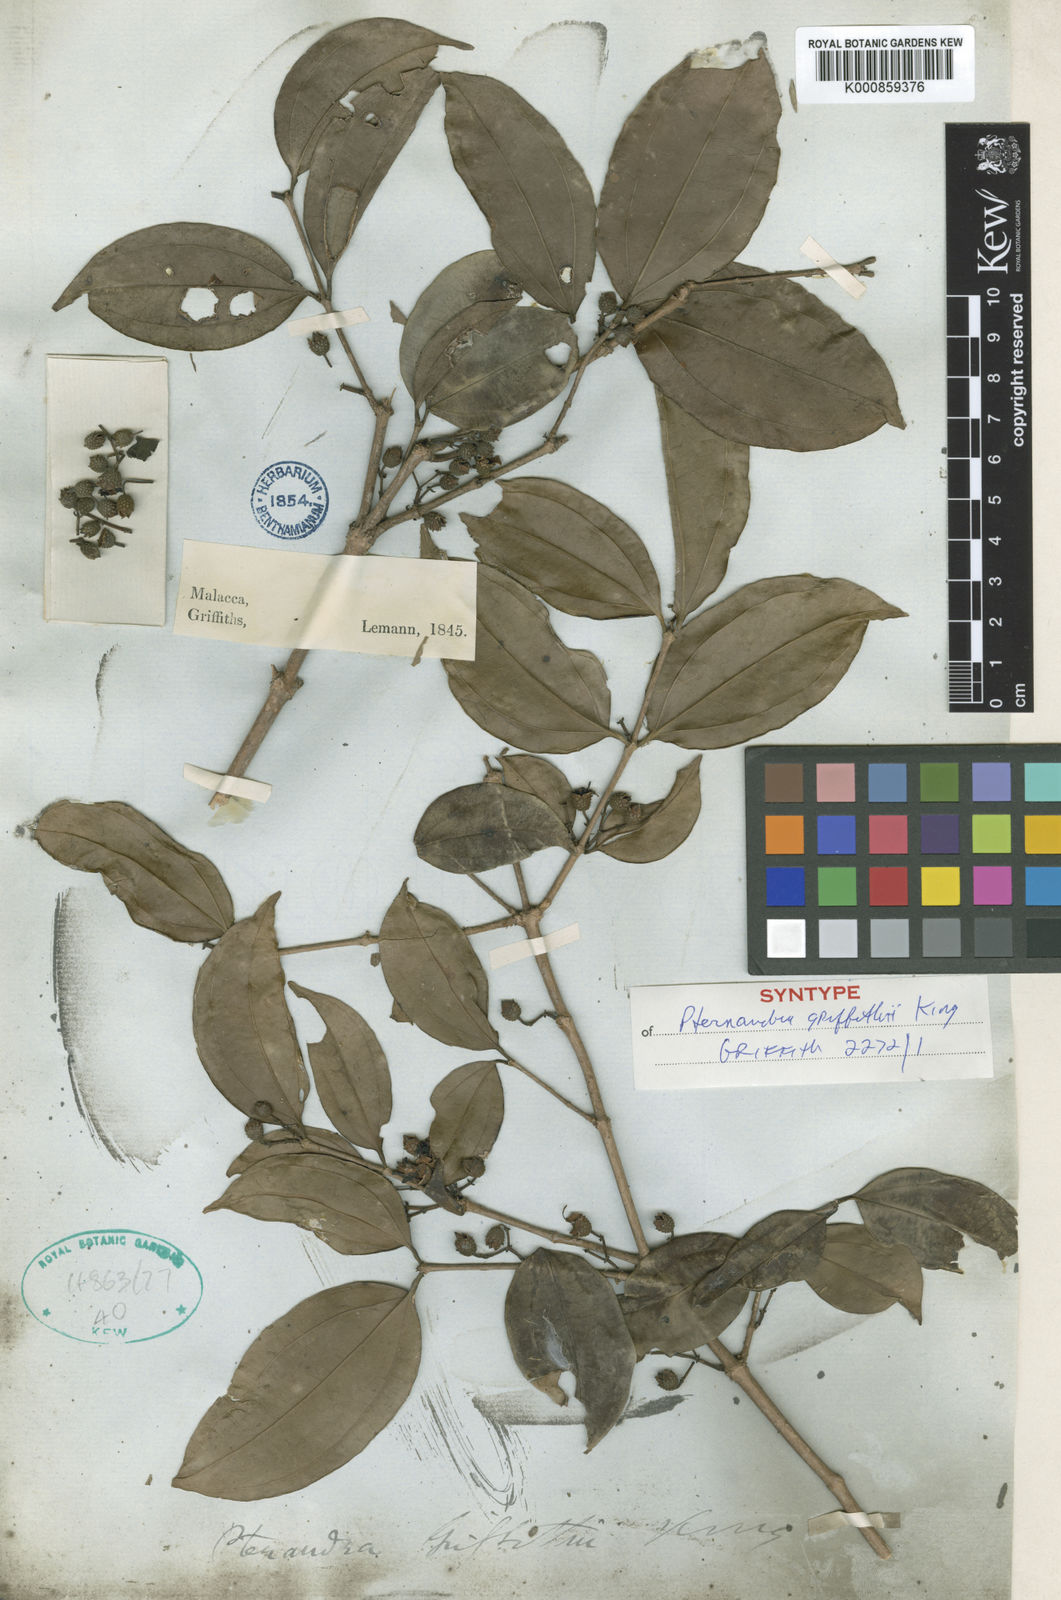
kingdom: Plantae
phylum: Tracheophyta
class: Magnoliopsida
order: Myrtales
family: Melastomataceae
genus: Pternandra
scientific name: Pternandra tuberculata
